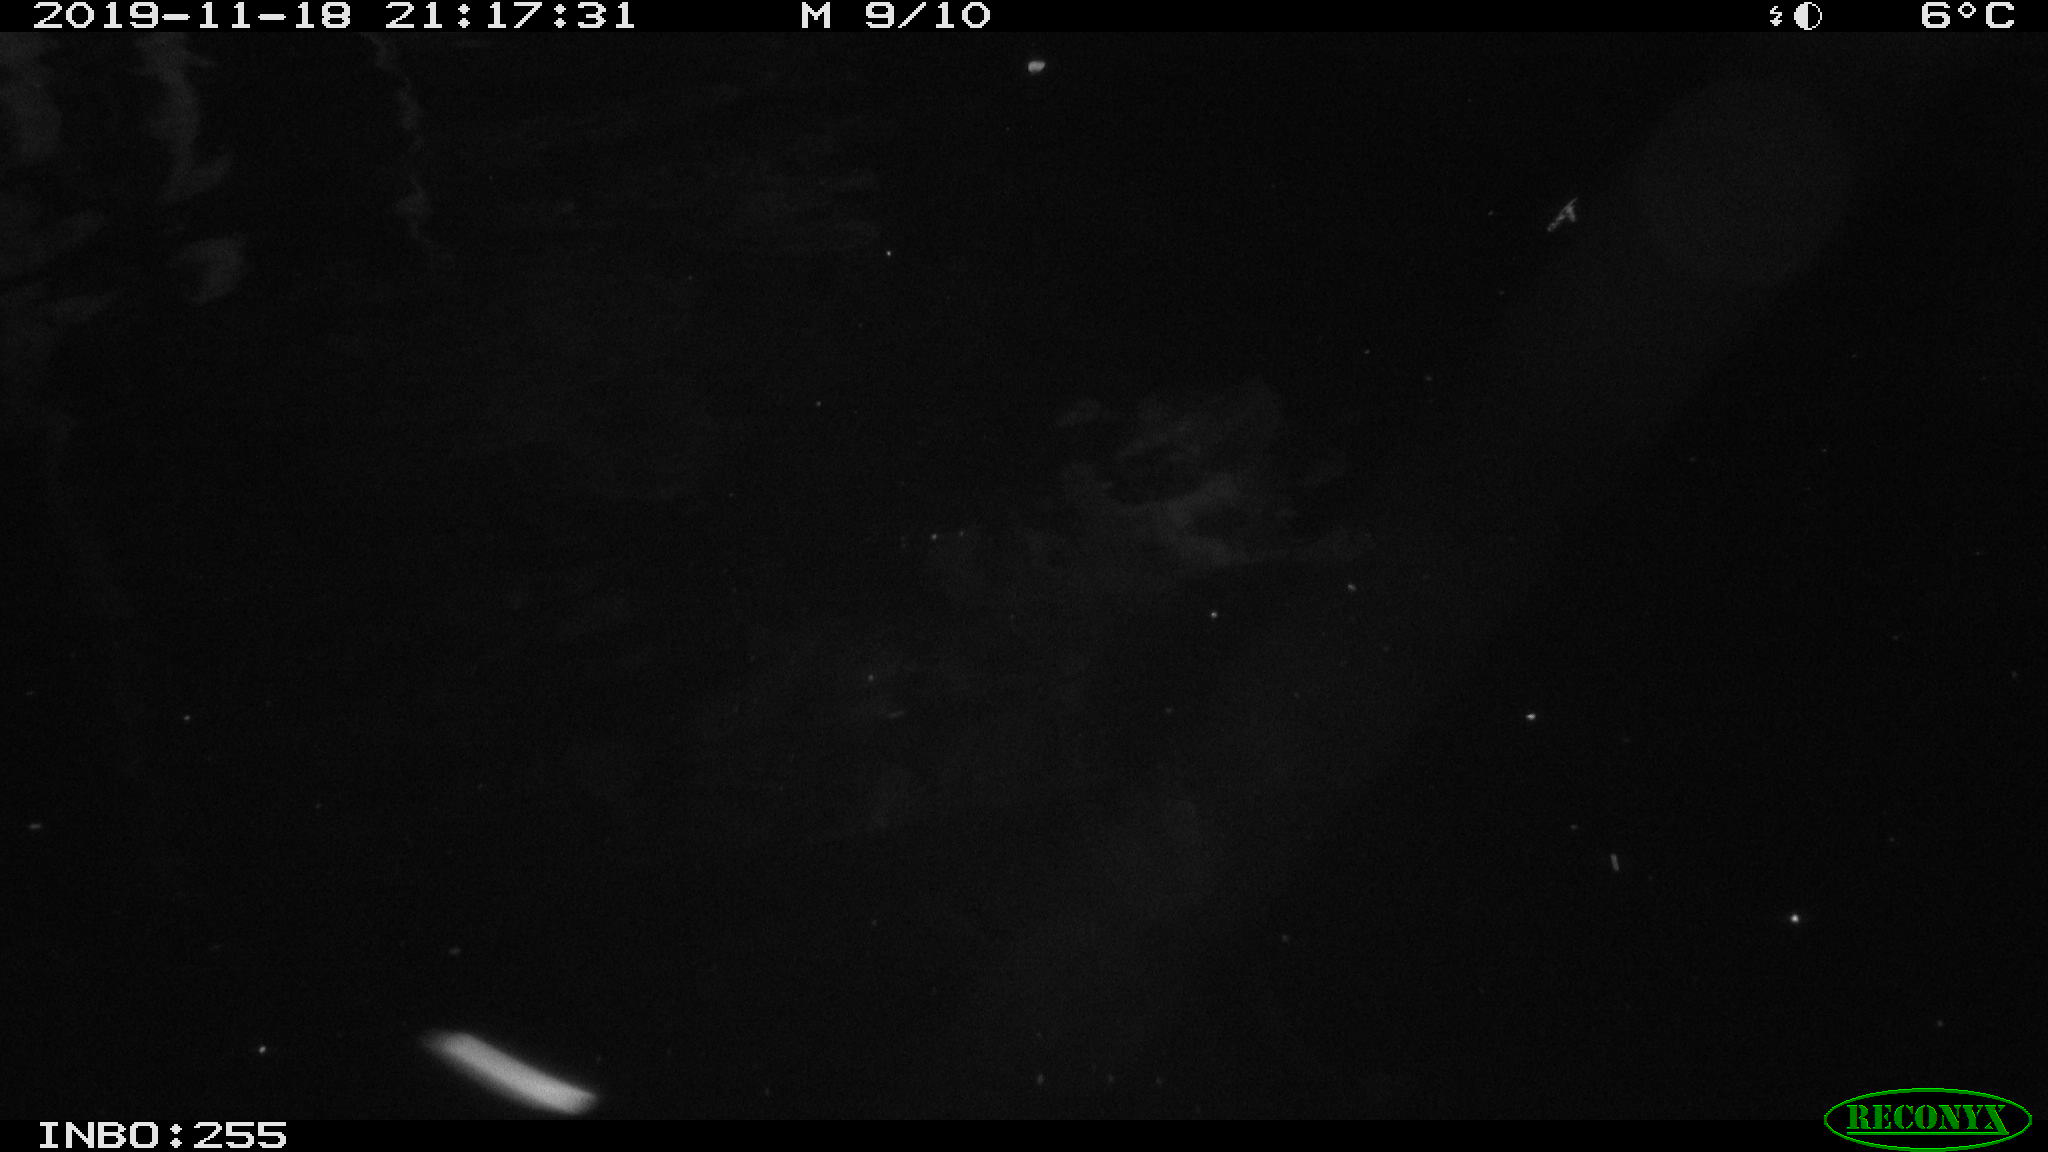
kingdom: Animalia
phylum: Chordata
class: Mammalia
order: Rodentia
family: Muridae
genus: Rattus
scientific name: Rattus norvegicus
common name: Brown rat
